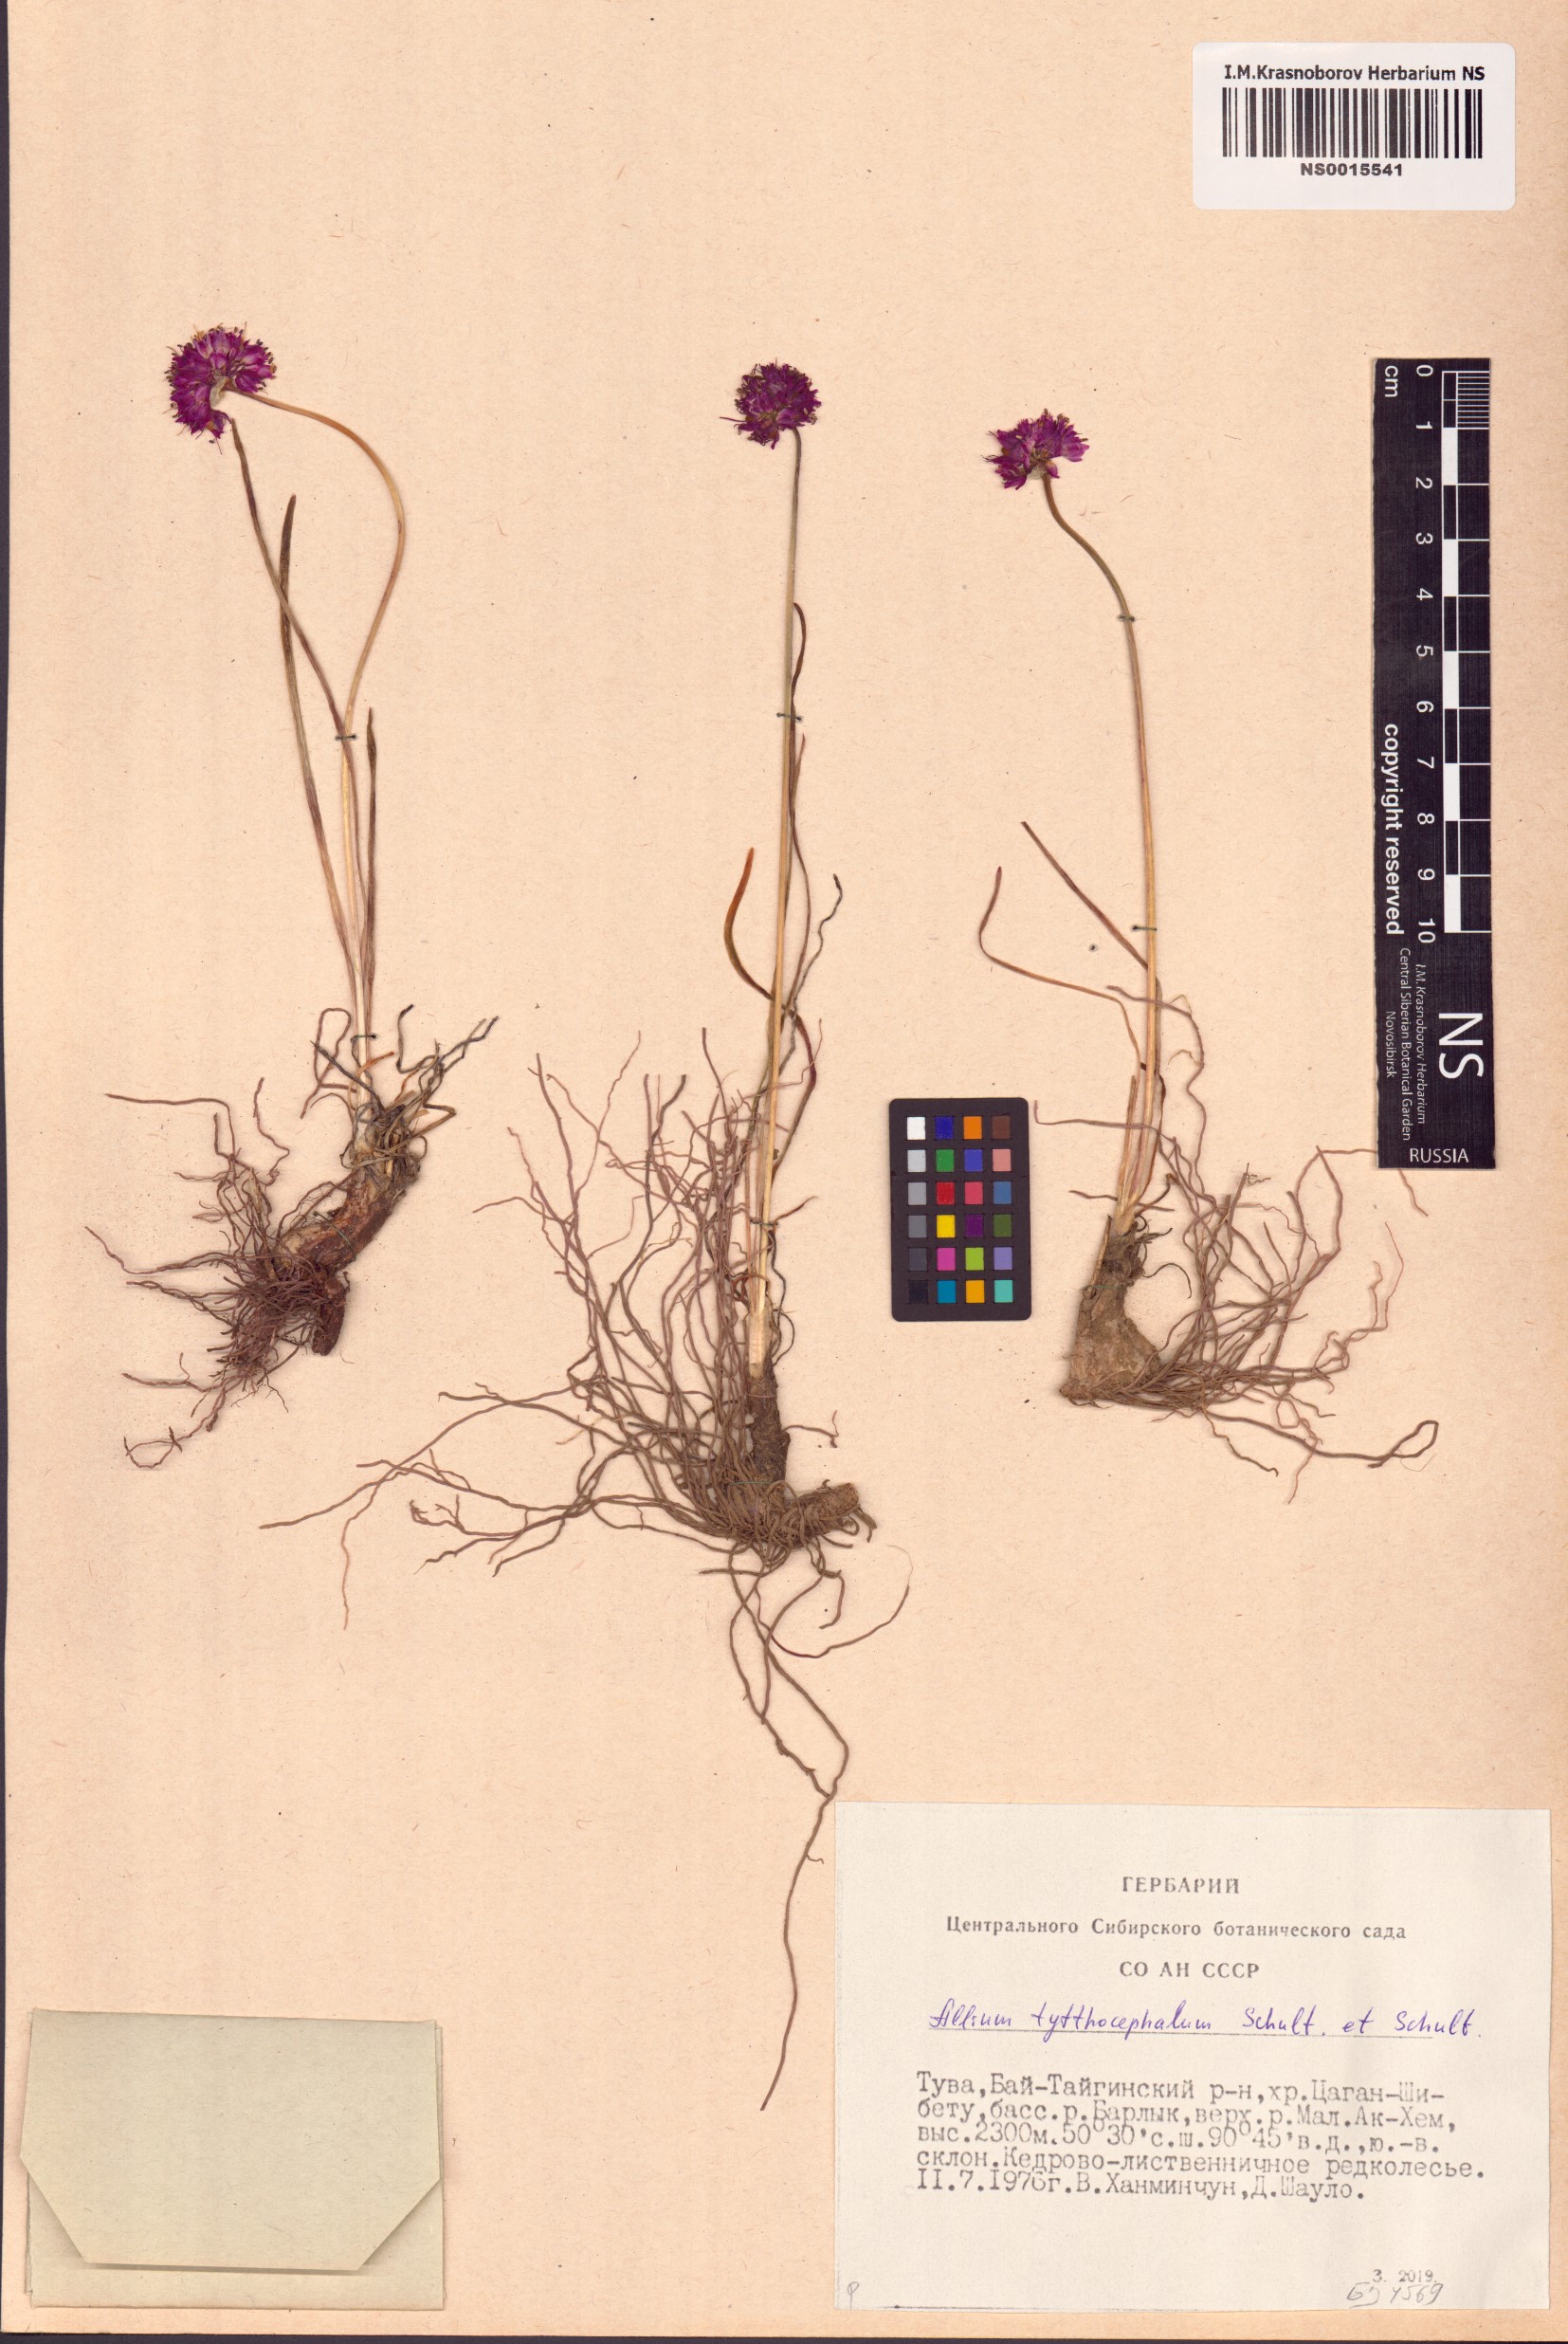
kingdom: Plantae
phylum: Tracheophyta
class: Liliopsida
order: Asparagales
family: Amaryllidaceae
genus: Allium
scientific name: Allium tytthocephalum
